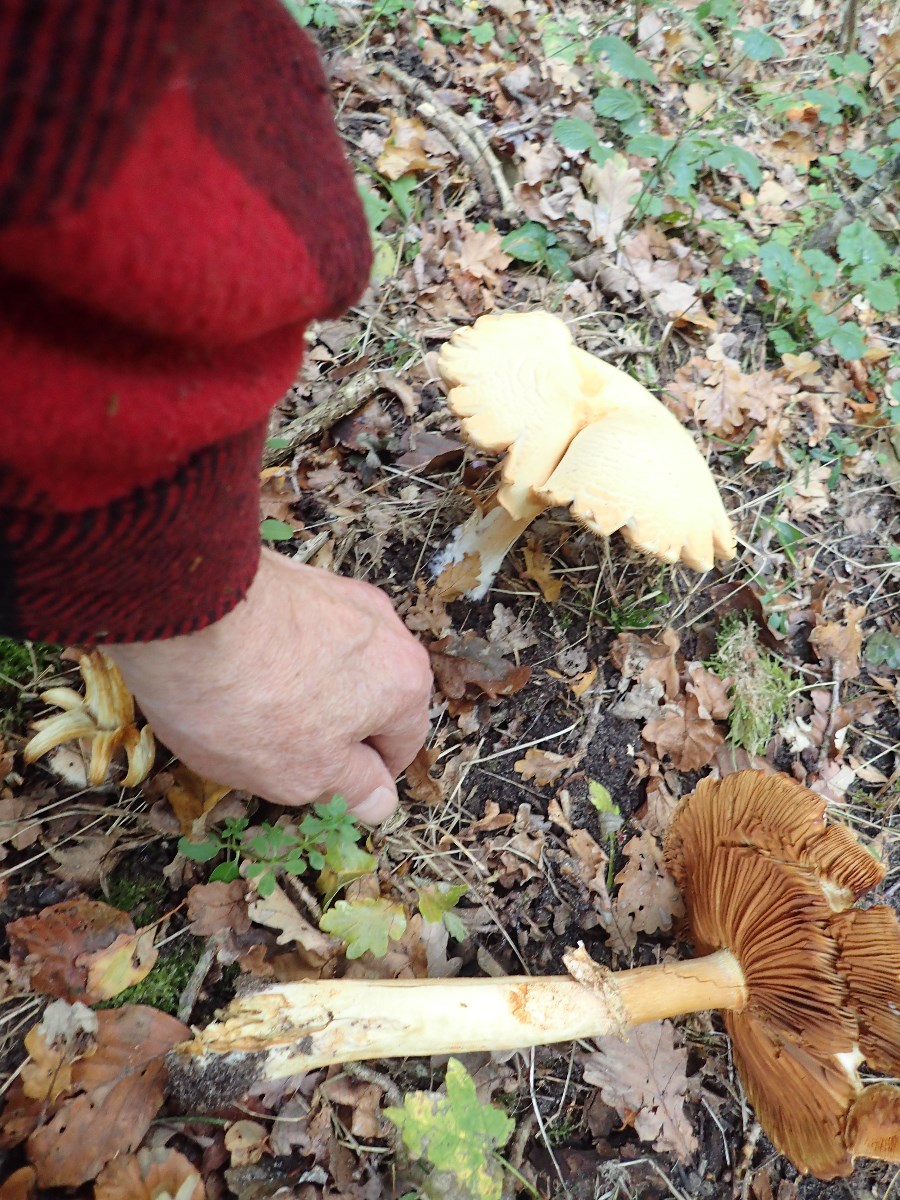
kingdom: Fungi
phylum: Basidiomycota
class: Agaricomycetes
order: Agaricales
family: Tricholomataceae
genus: Phaeolepiota
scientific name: Phaeolepiota aurea
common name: gyldenhat
